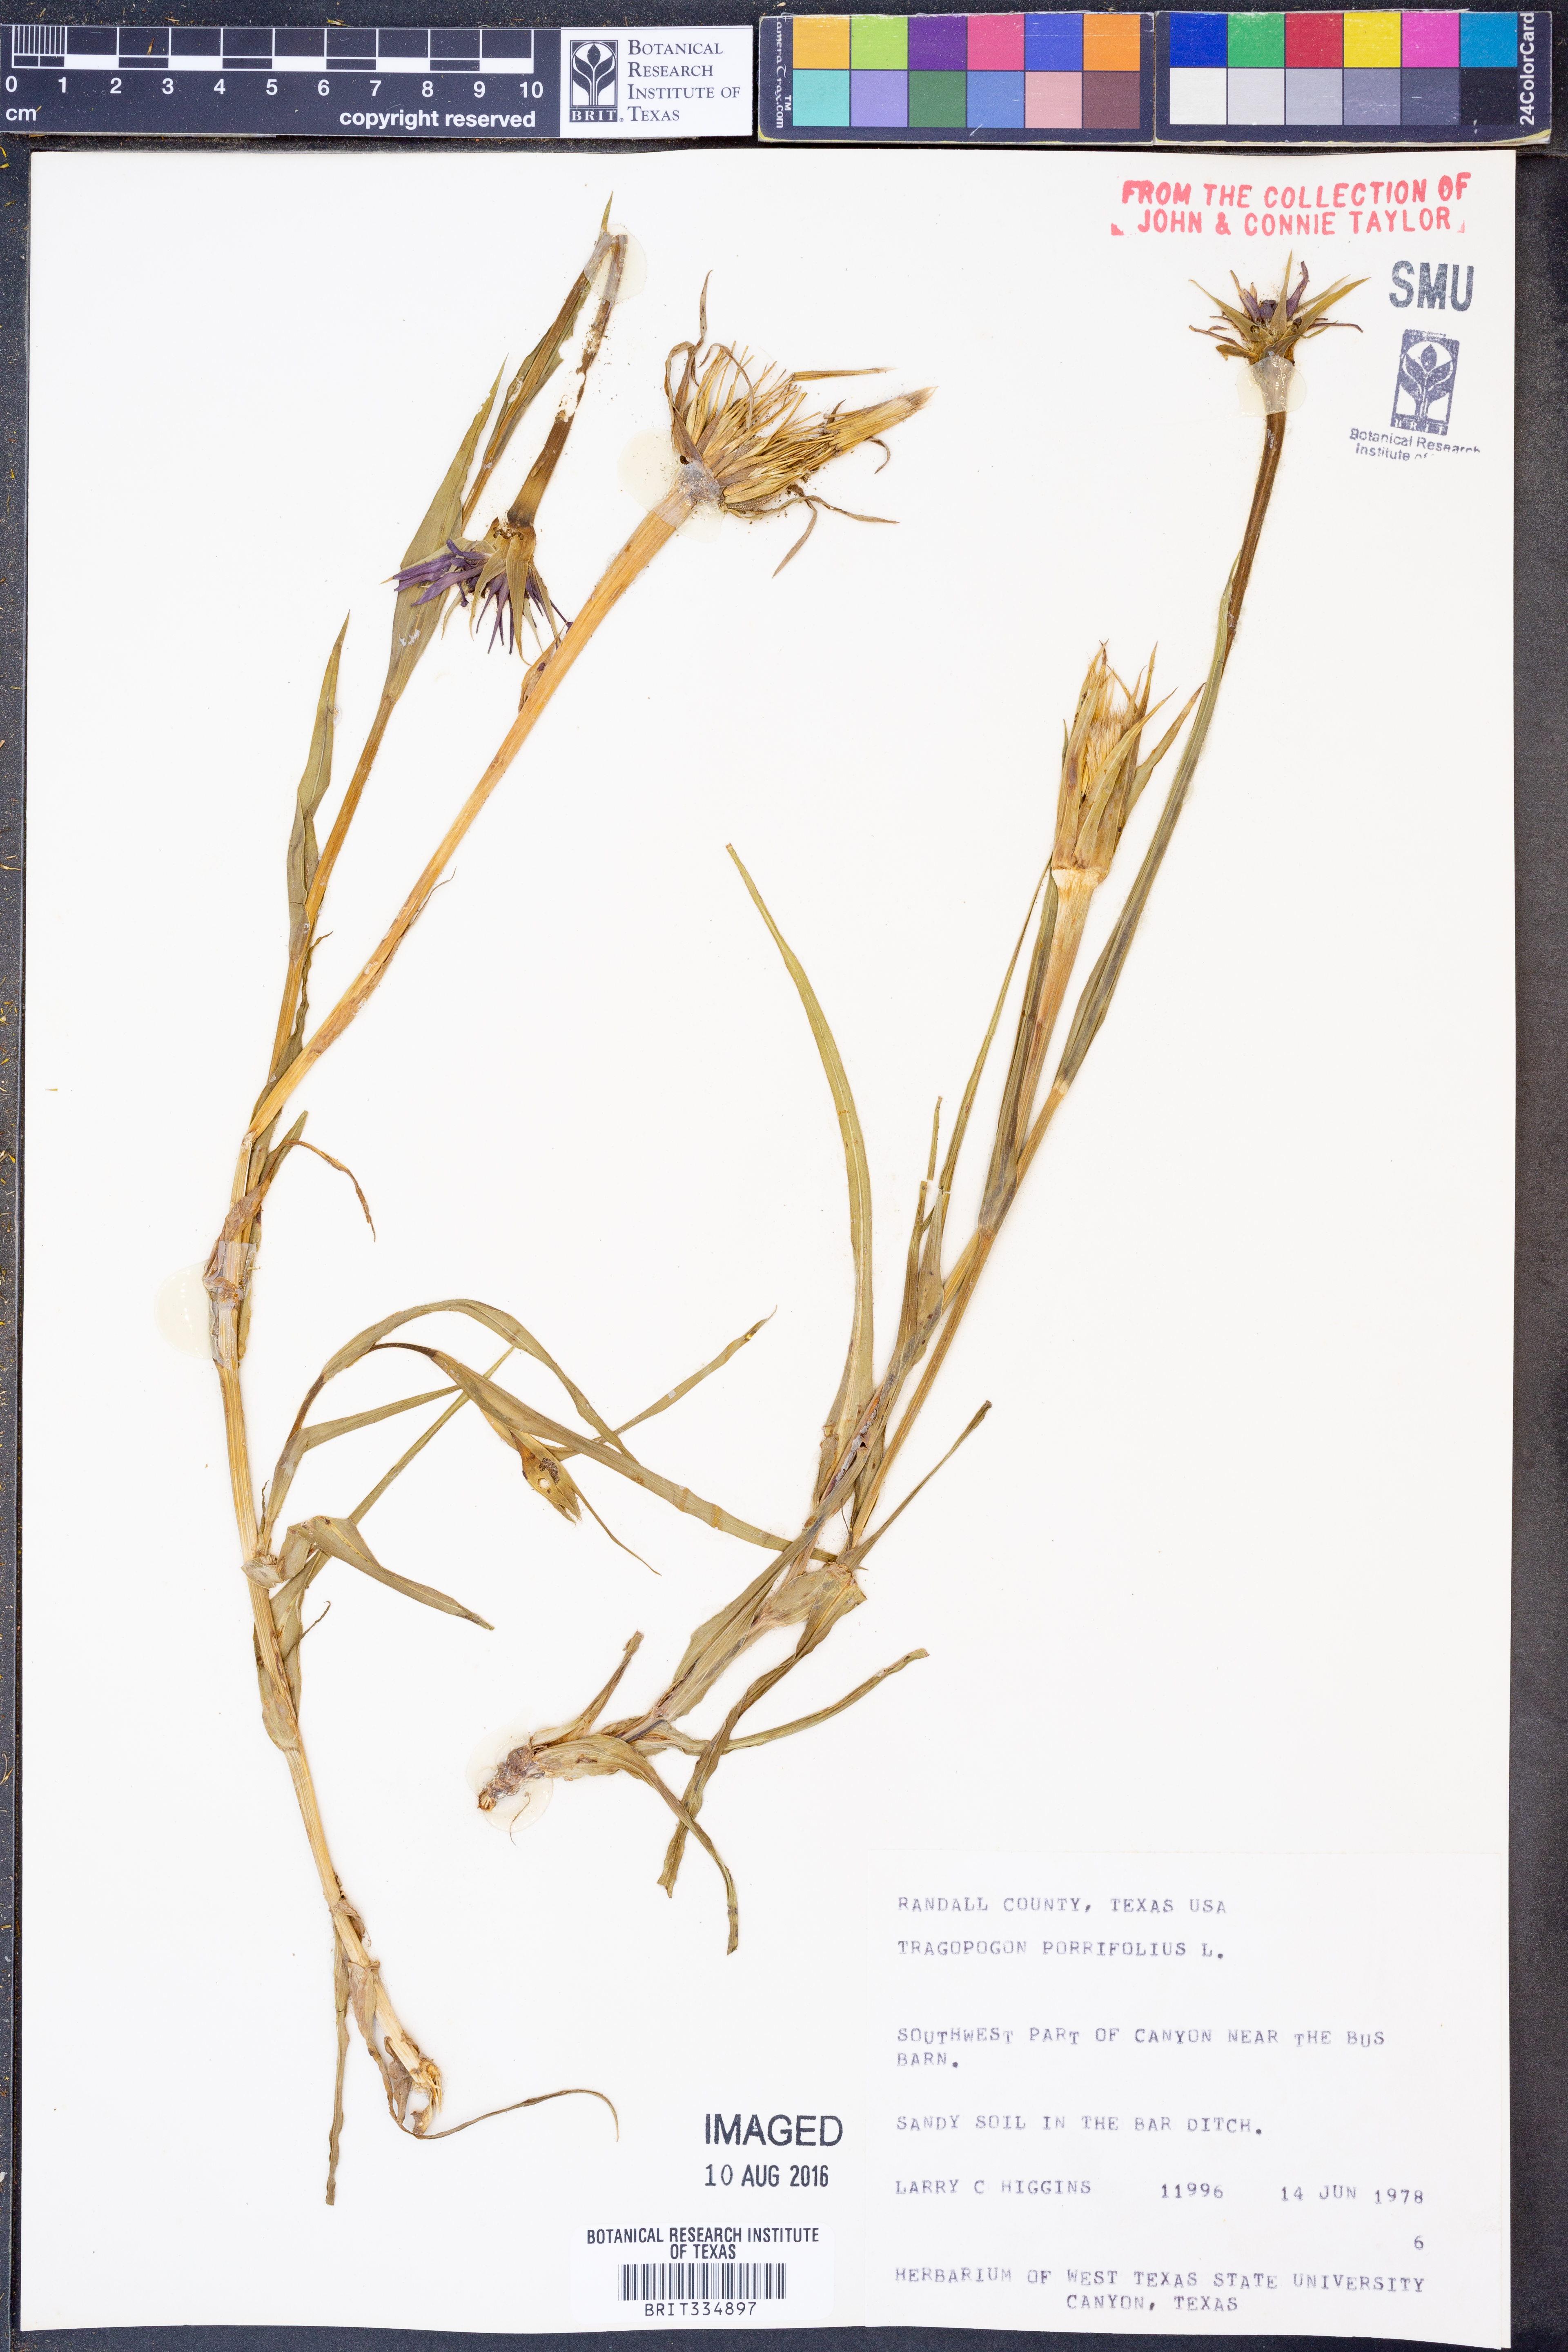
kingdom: Plantae
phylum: Tracheophyta
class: Magnoliopsida
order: Asterales
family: Asteraceae
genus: Tragopogon
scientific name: Tragopogon porrifolius
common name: Salsify
